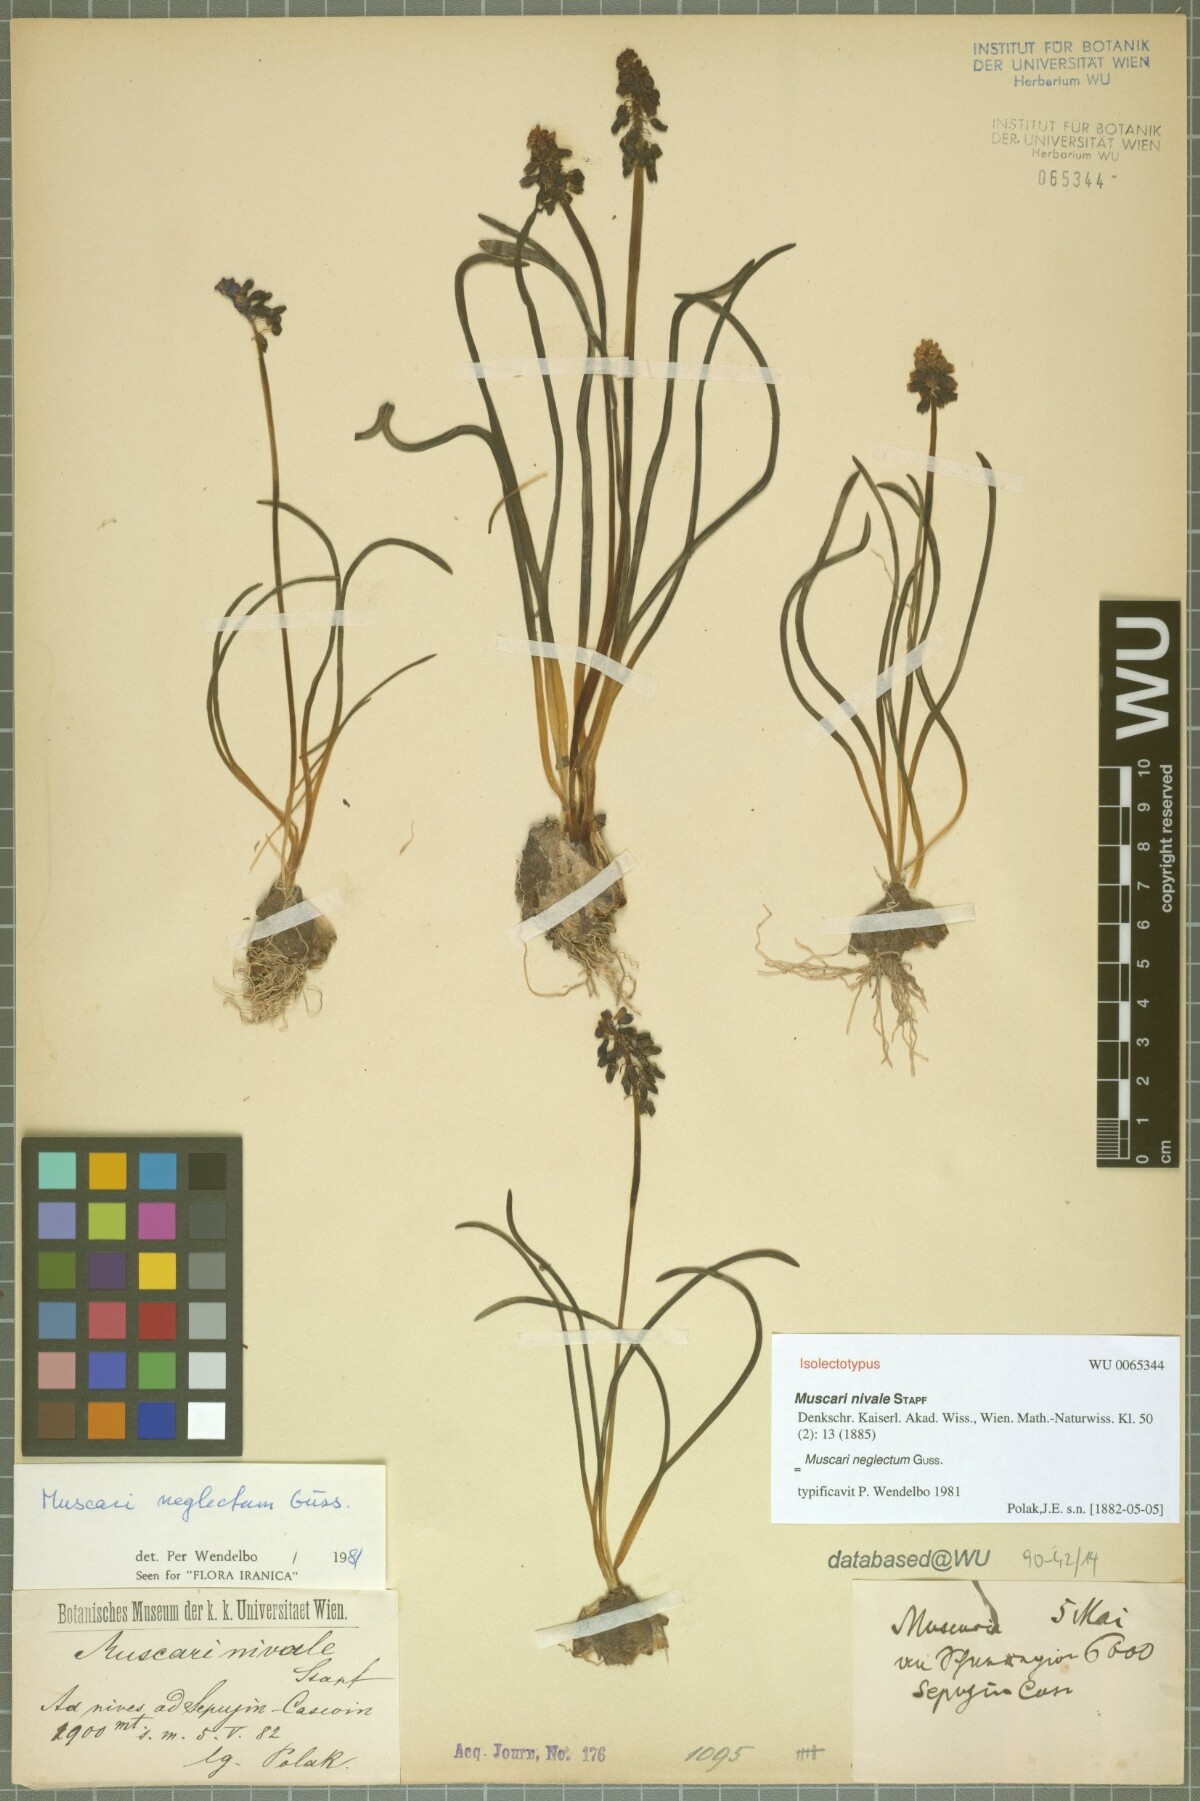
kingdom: Plantae
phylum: Tracheophyta
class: Liliopsida
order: Asparagales
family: Asparagaceae
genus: Muscari
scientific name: Muscari neglectum
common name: Grape-hyacinth
